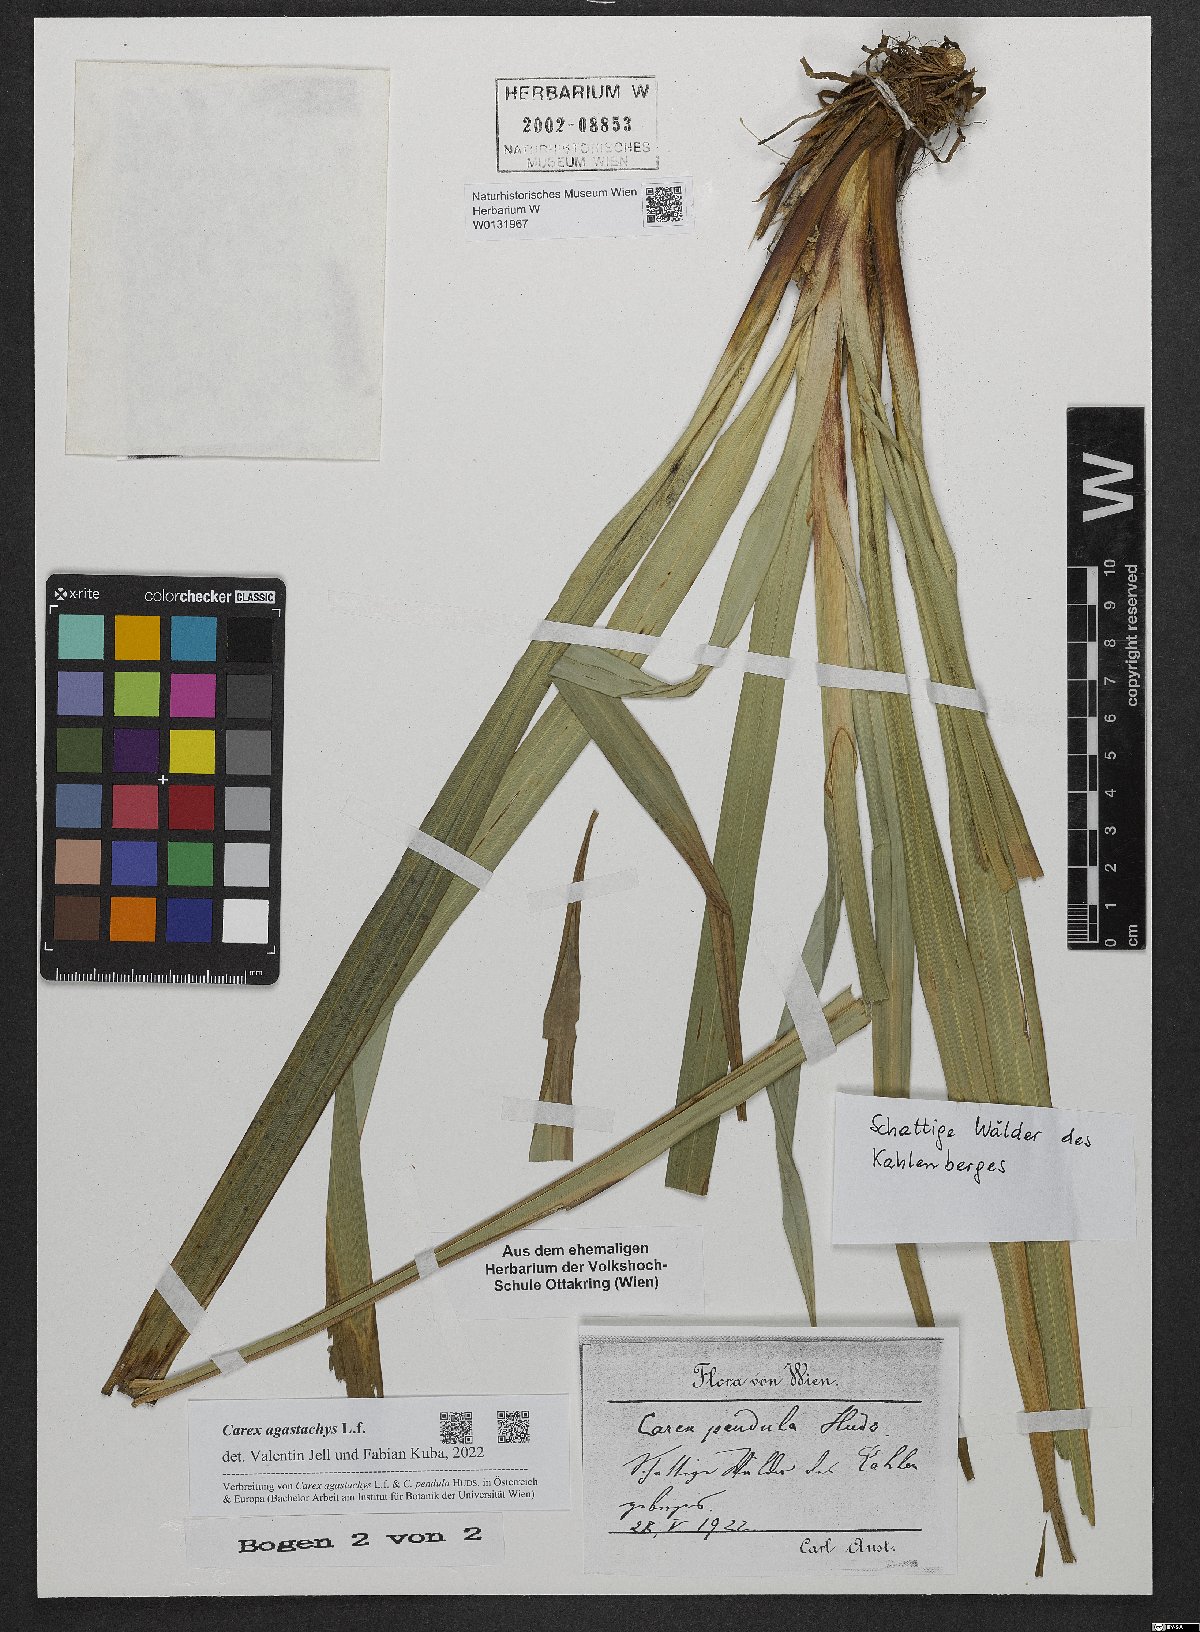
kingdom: Plantae
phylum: Tracheophyta
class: Liliopsida
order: Poales
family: Cyperaceae
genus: Carex
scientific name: Carex agastachys
